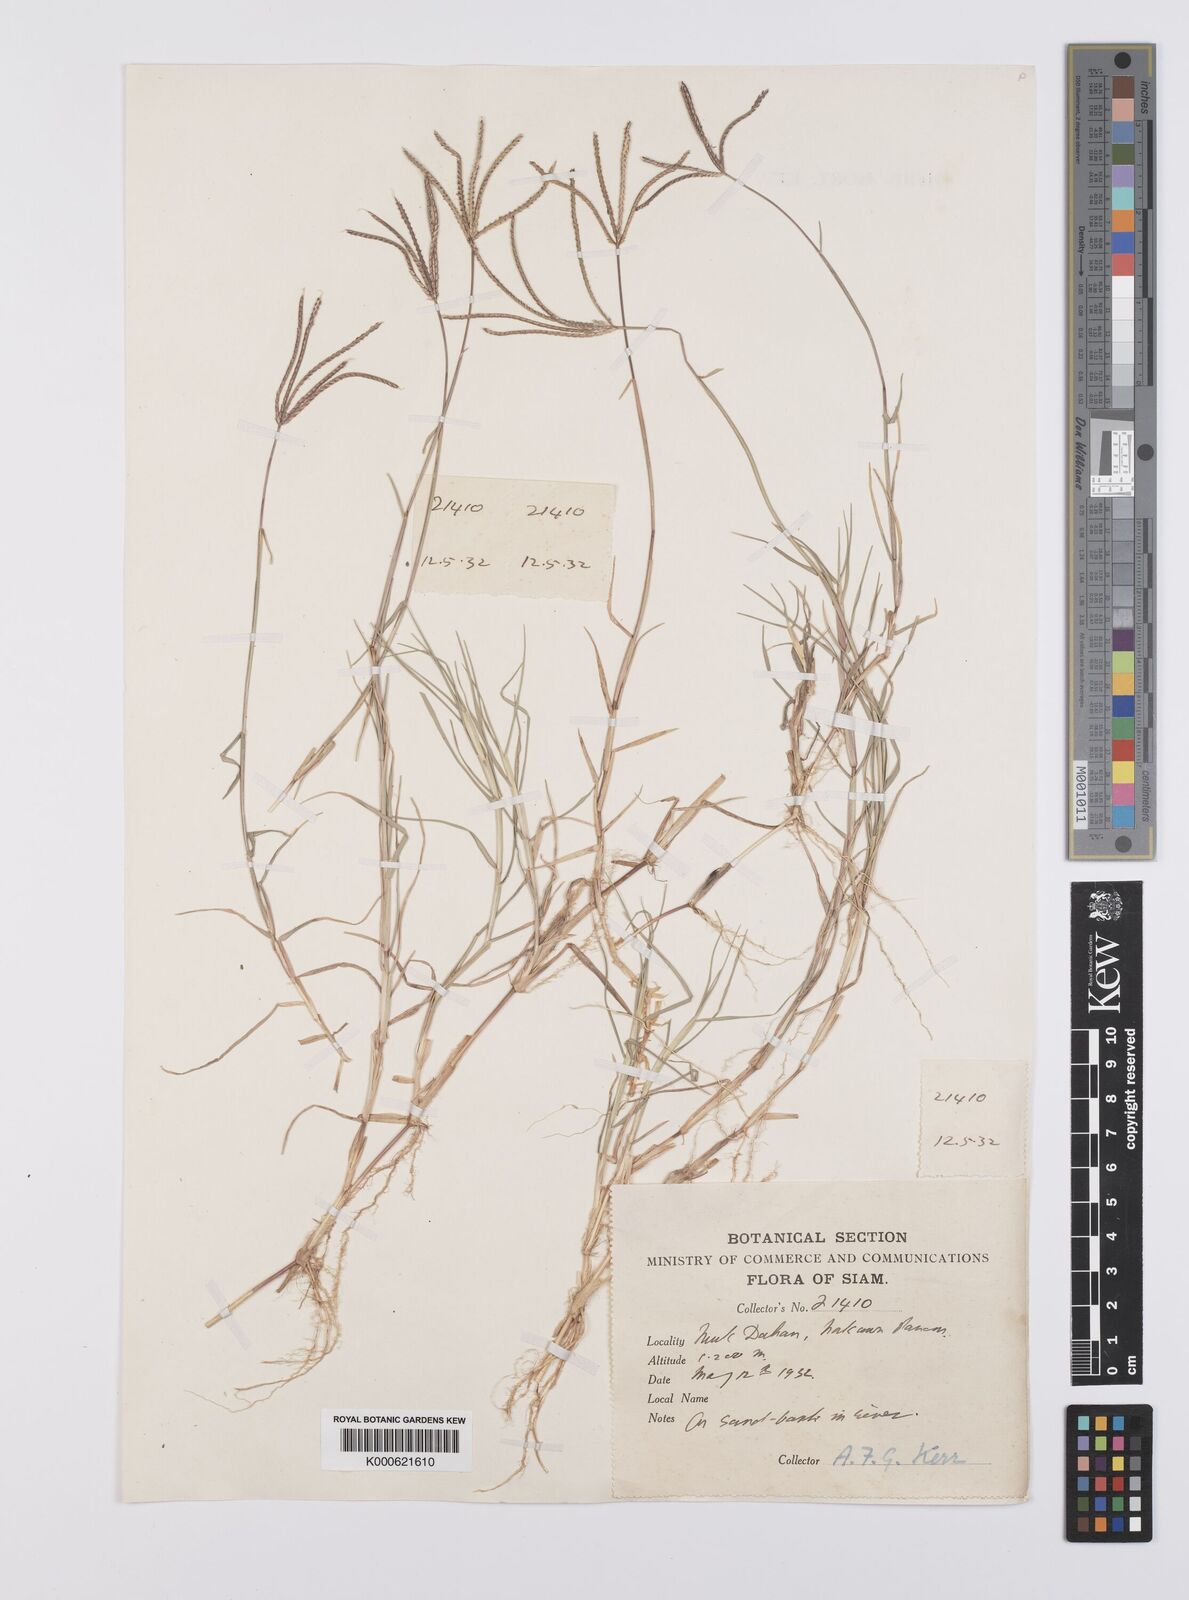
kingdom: Plantae
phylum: Tracheophyta
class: Liliopsida
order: Poales
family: Poaceae
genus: Cynodon
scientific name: Cynodon dactylon
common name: Bermuda grass
